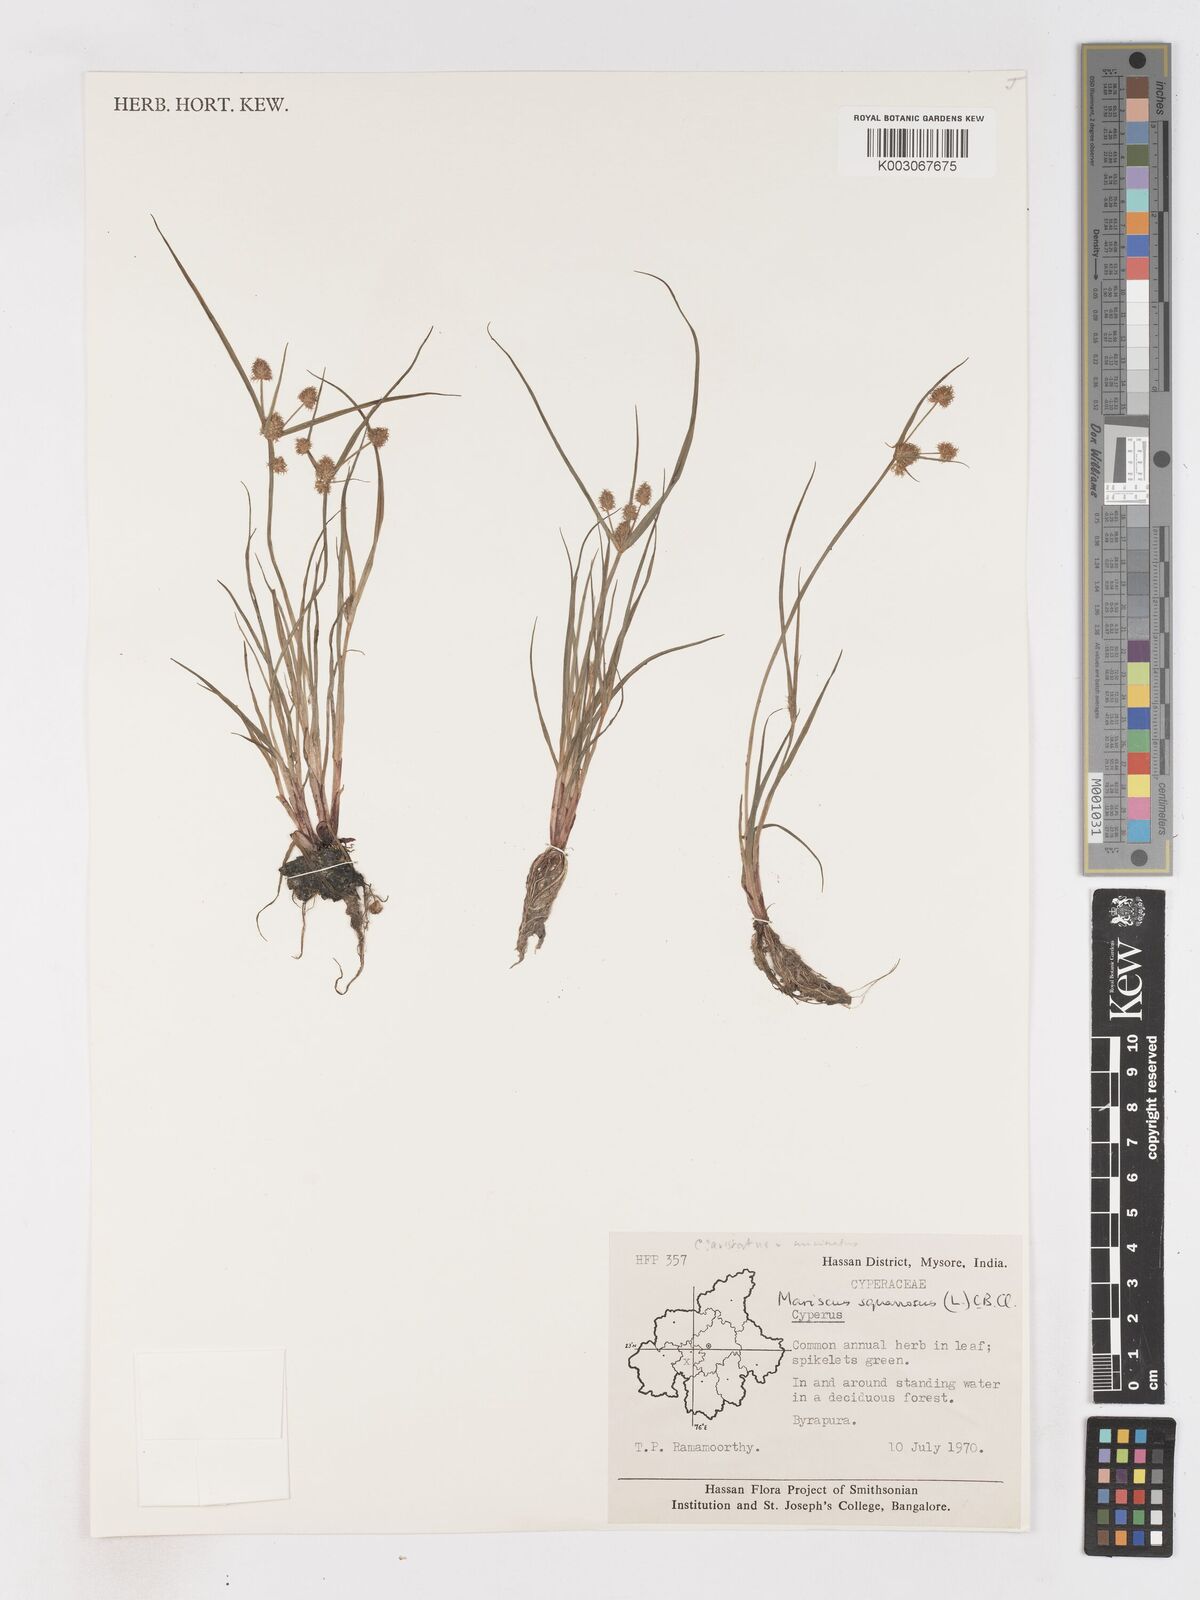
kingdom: Plantae
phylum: Tracheophyta
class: Liliopsida
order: Poales
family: Cyperaceae
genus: Cyperus
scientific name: Cyperus squarrosus
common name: Awned cyperus
